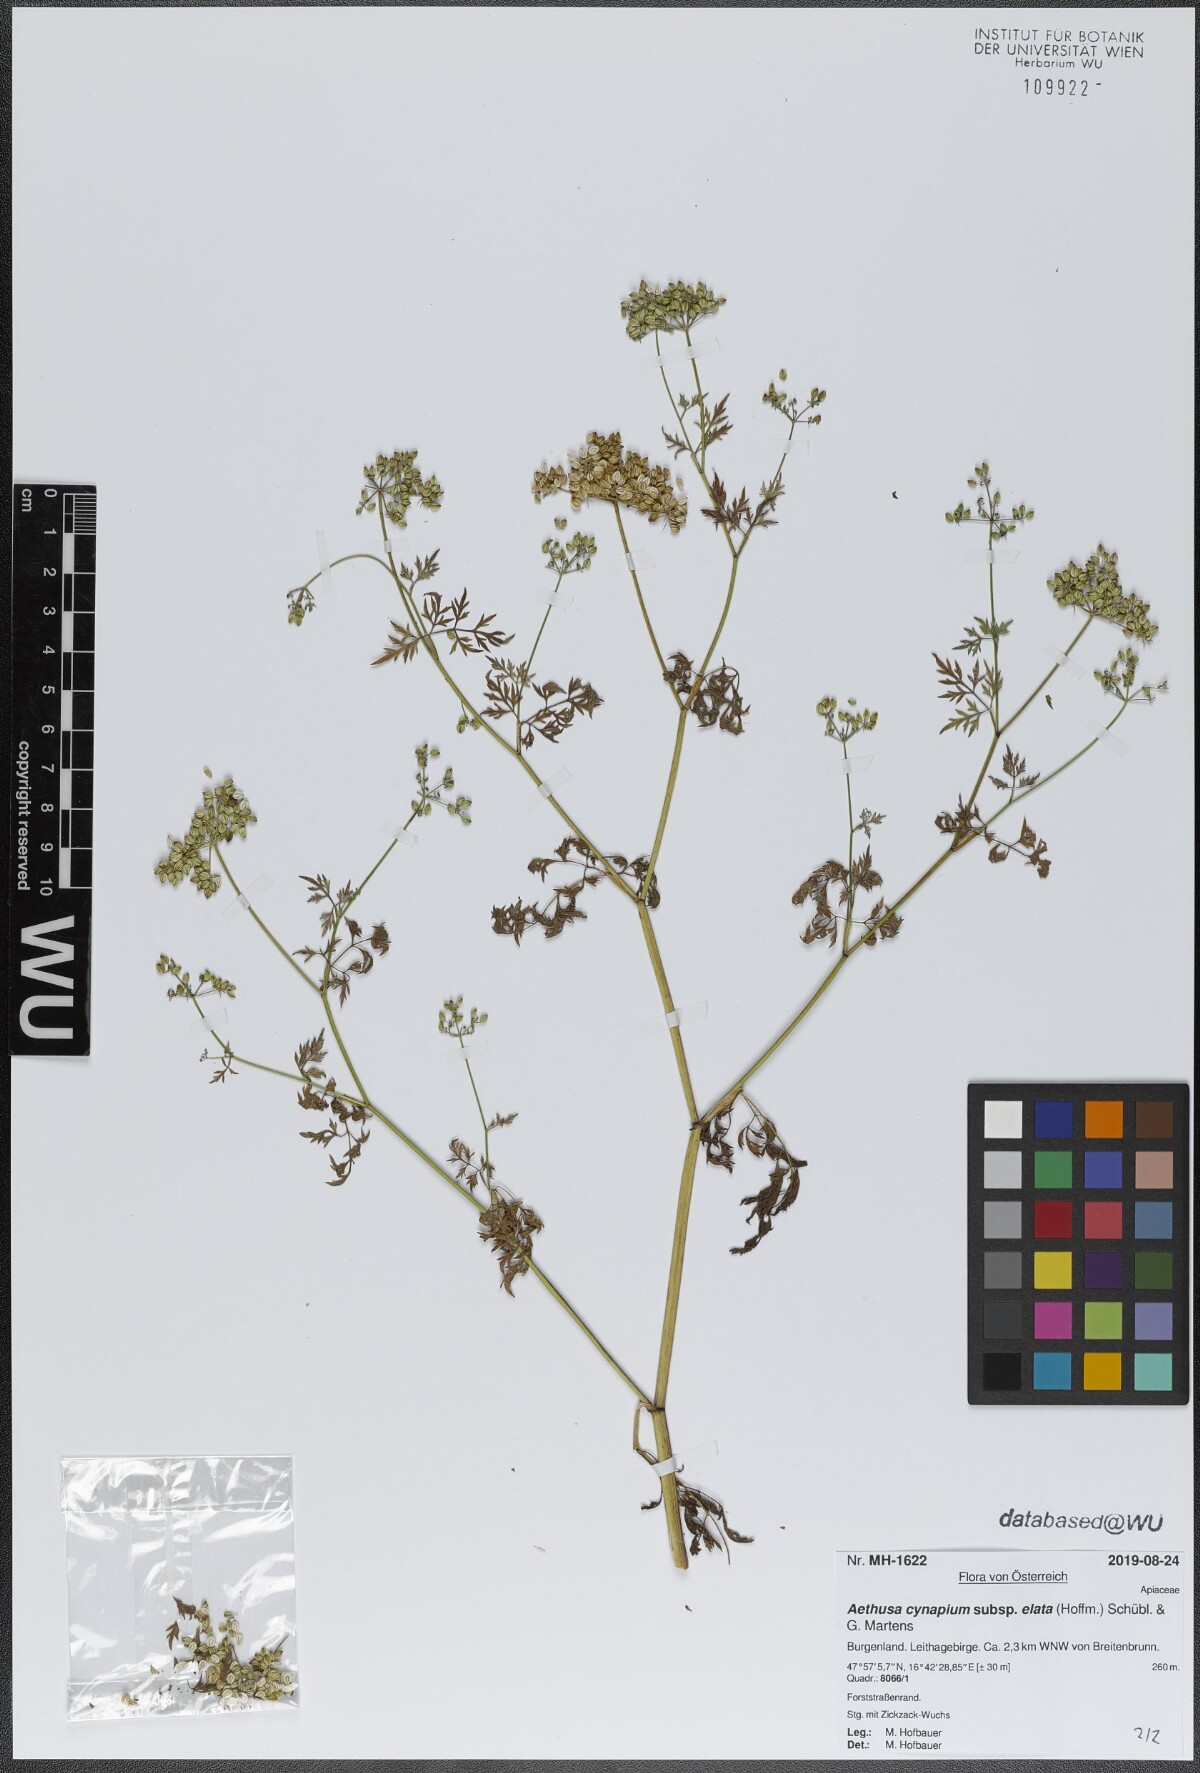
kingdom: Plantae
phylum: Tracheophyta
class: Magnoliopsida
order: Apiales
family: Apiaceae
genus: Aethusa
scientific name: Aethusa cynapium
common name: Fool's parsley
